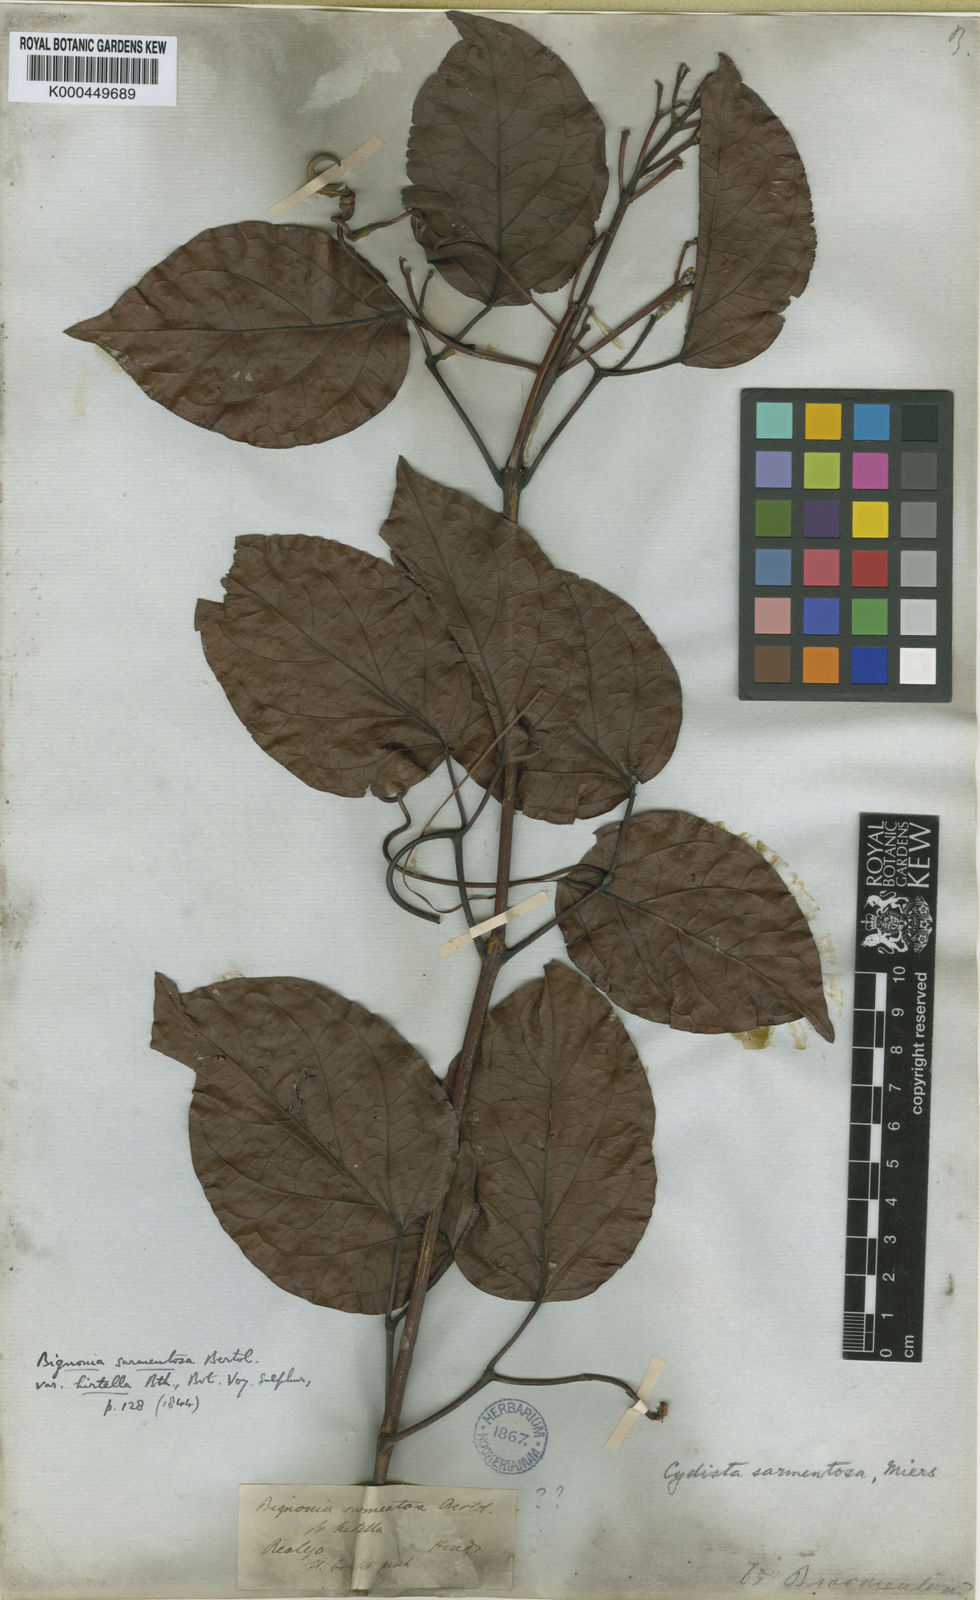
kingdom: Plantae
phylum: Tracheophyta
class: Magnoliopsida
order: Lamiales
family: Bignoniaceae
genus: Bignonia
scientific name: Bignonia aequinoctialis
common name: Garlicvine
